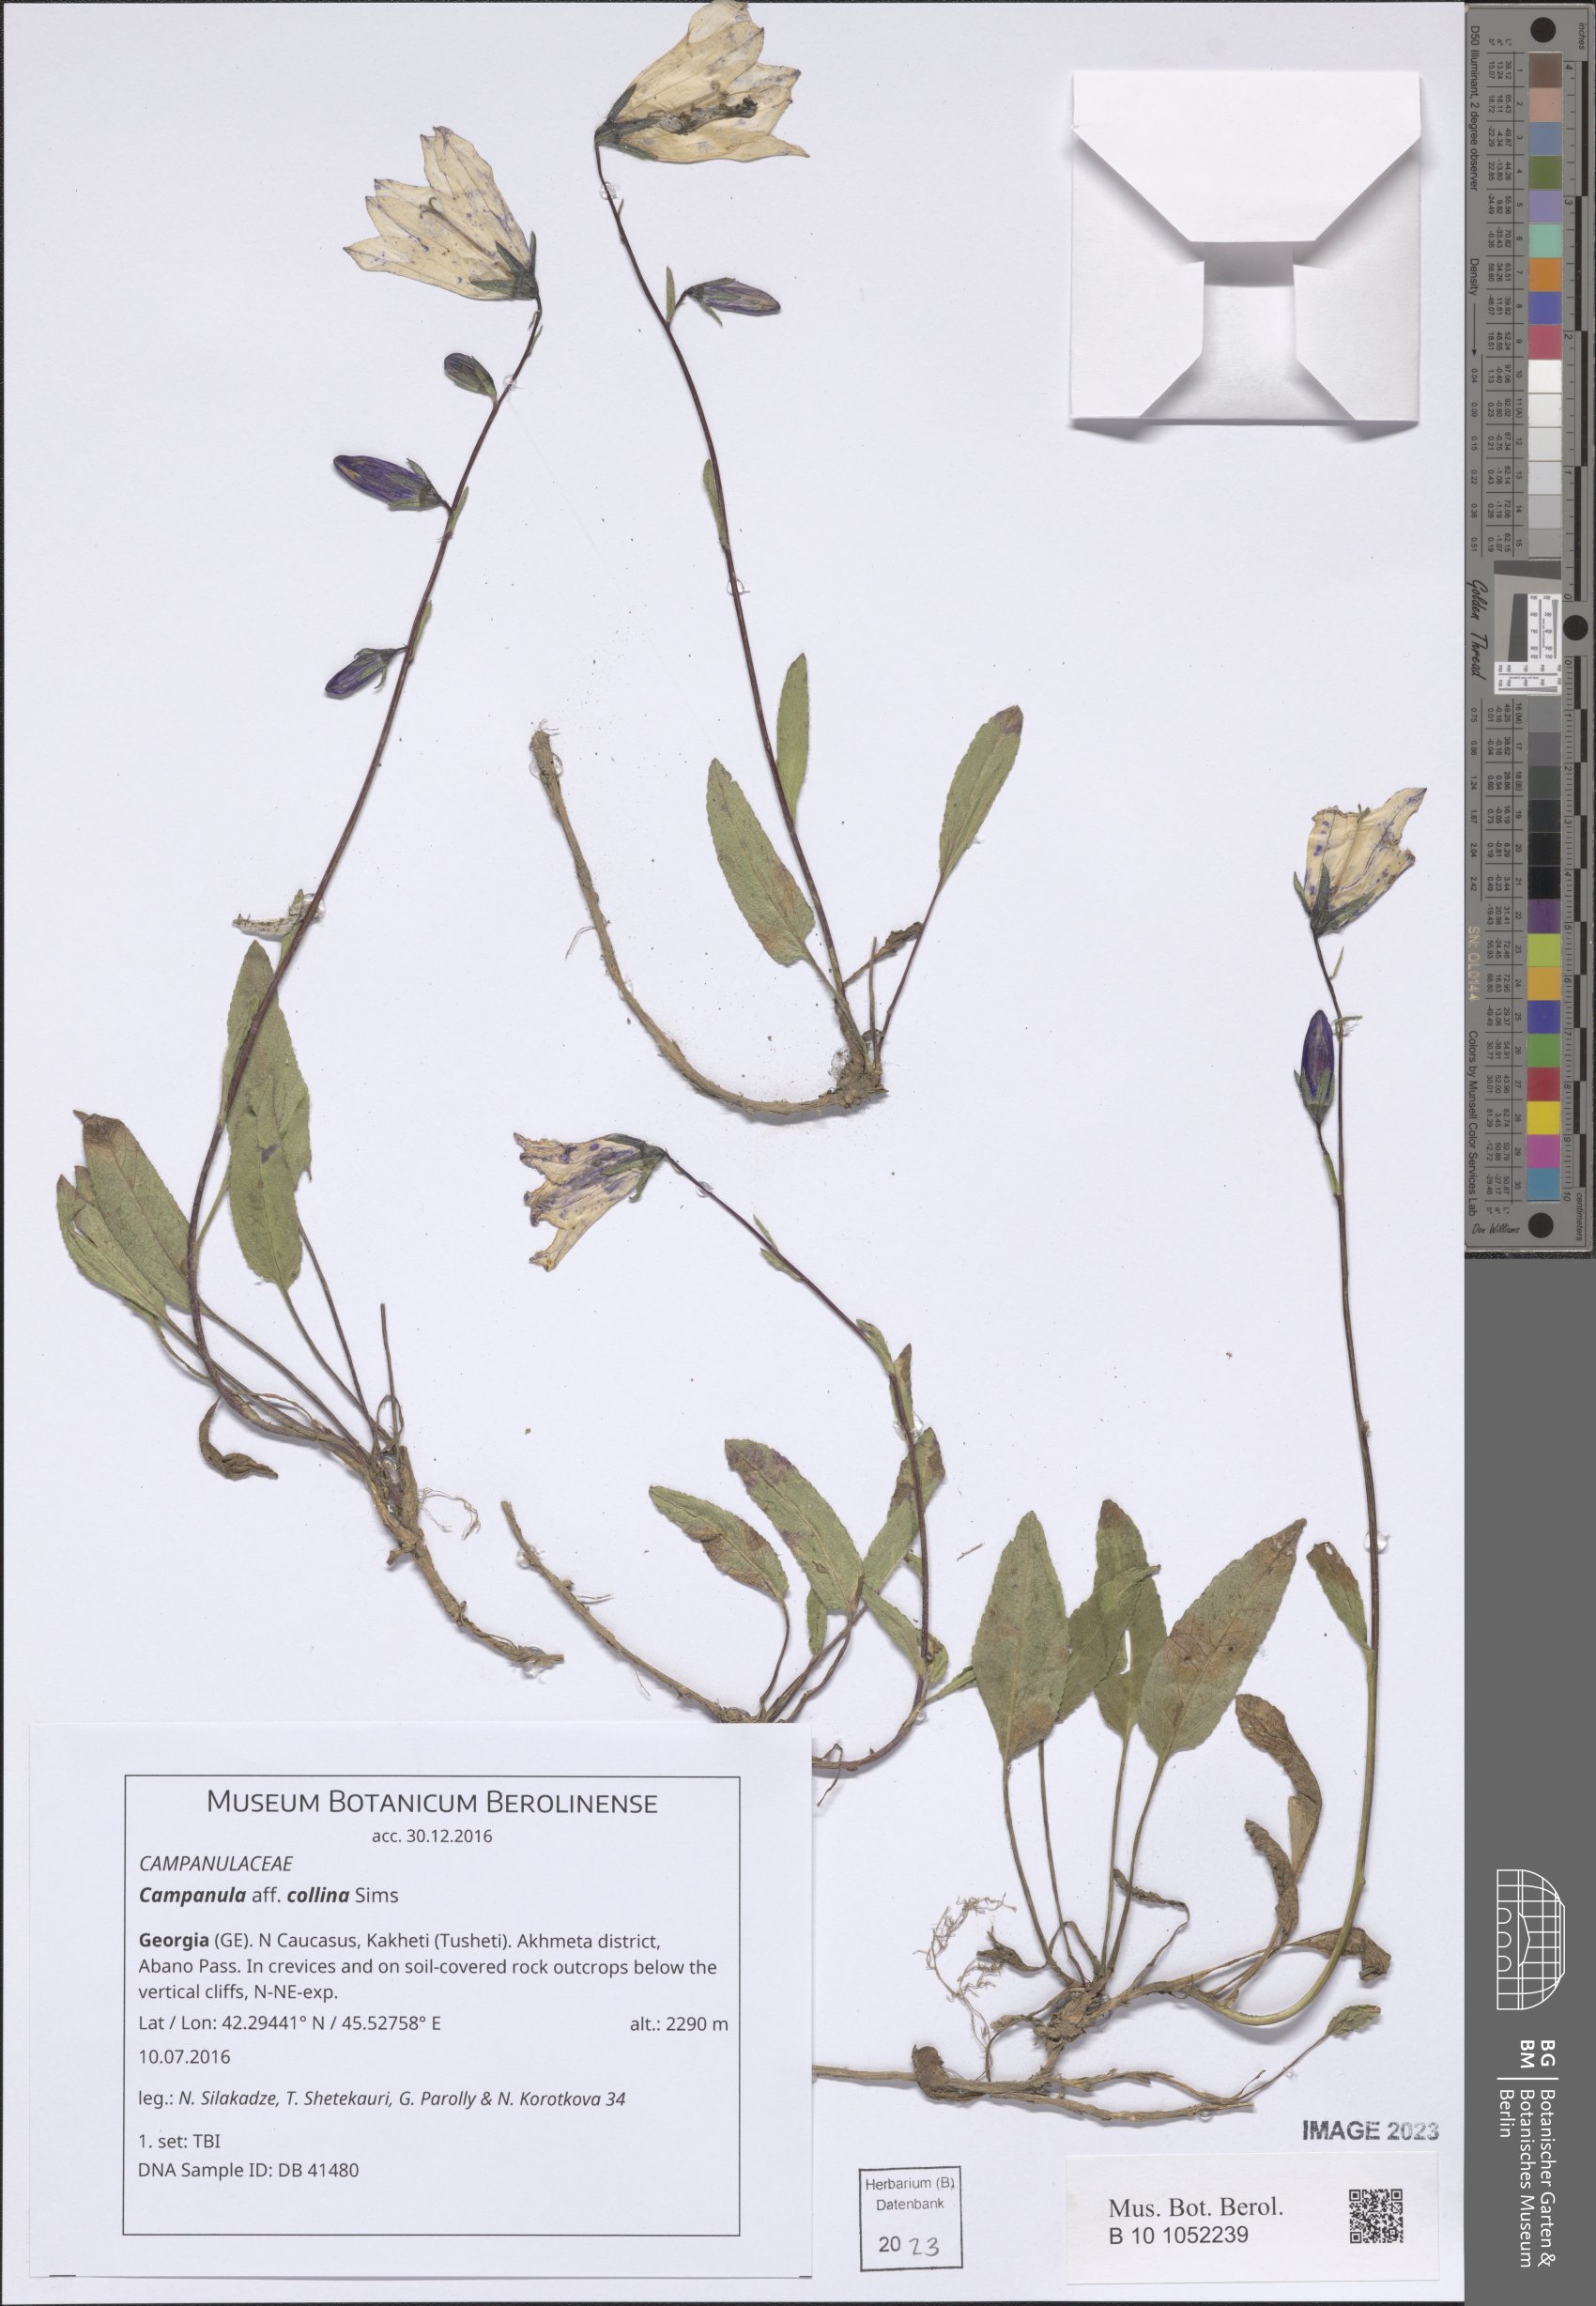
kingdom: Plantae
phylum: Tracheophyta
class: Magnoliopsida
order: Asterales
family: Campanulaceae
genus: Campanula
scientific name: Campanula collina
